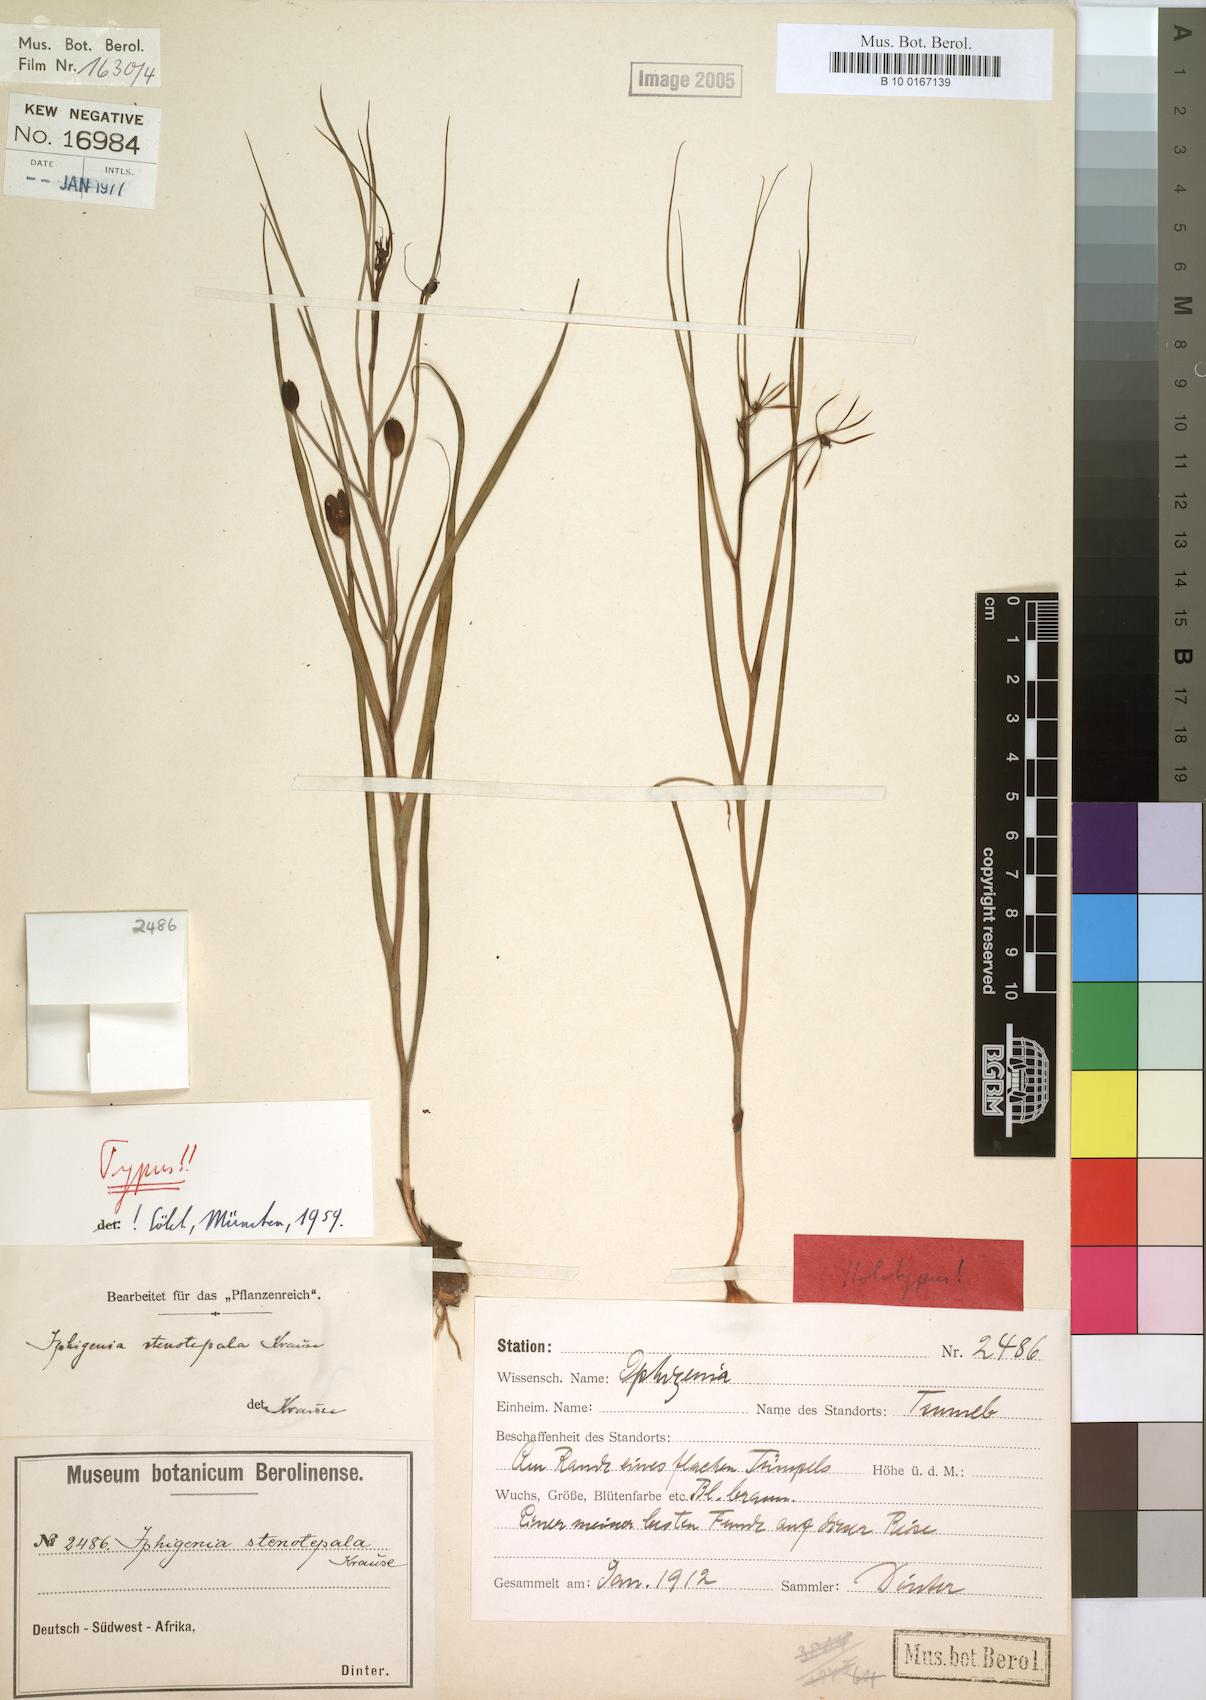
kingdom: Plantae
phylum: Tracheophyta
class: Liliopsida
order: Liliales
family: Colchicaceae
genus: Iphigenia
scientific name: Iphigenia oliveri
